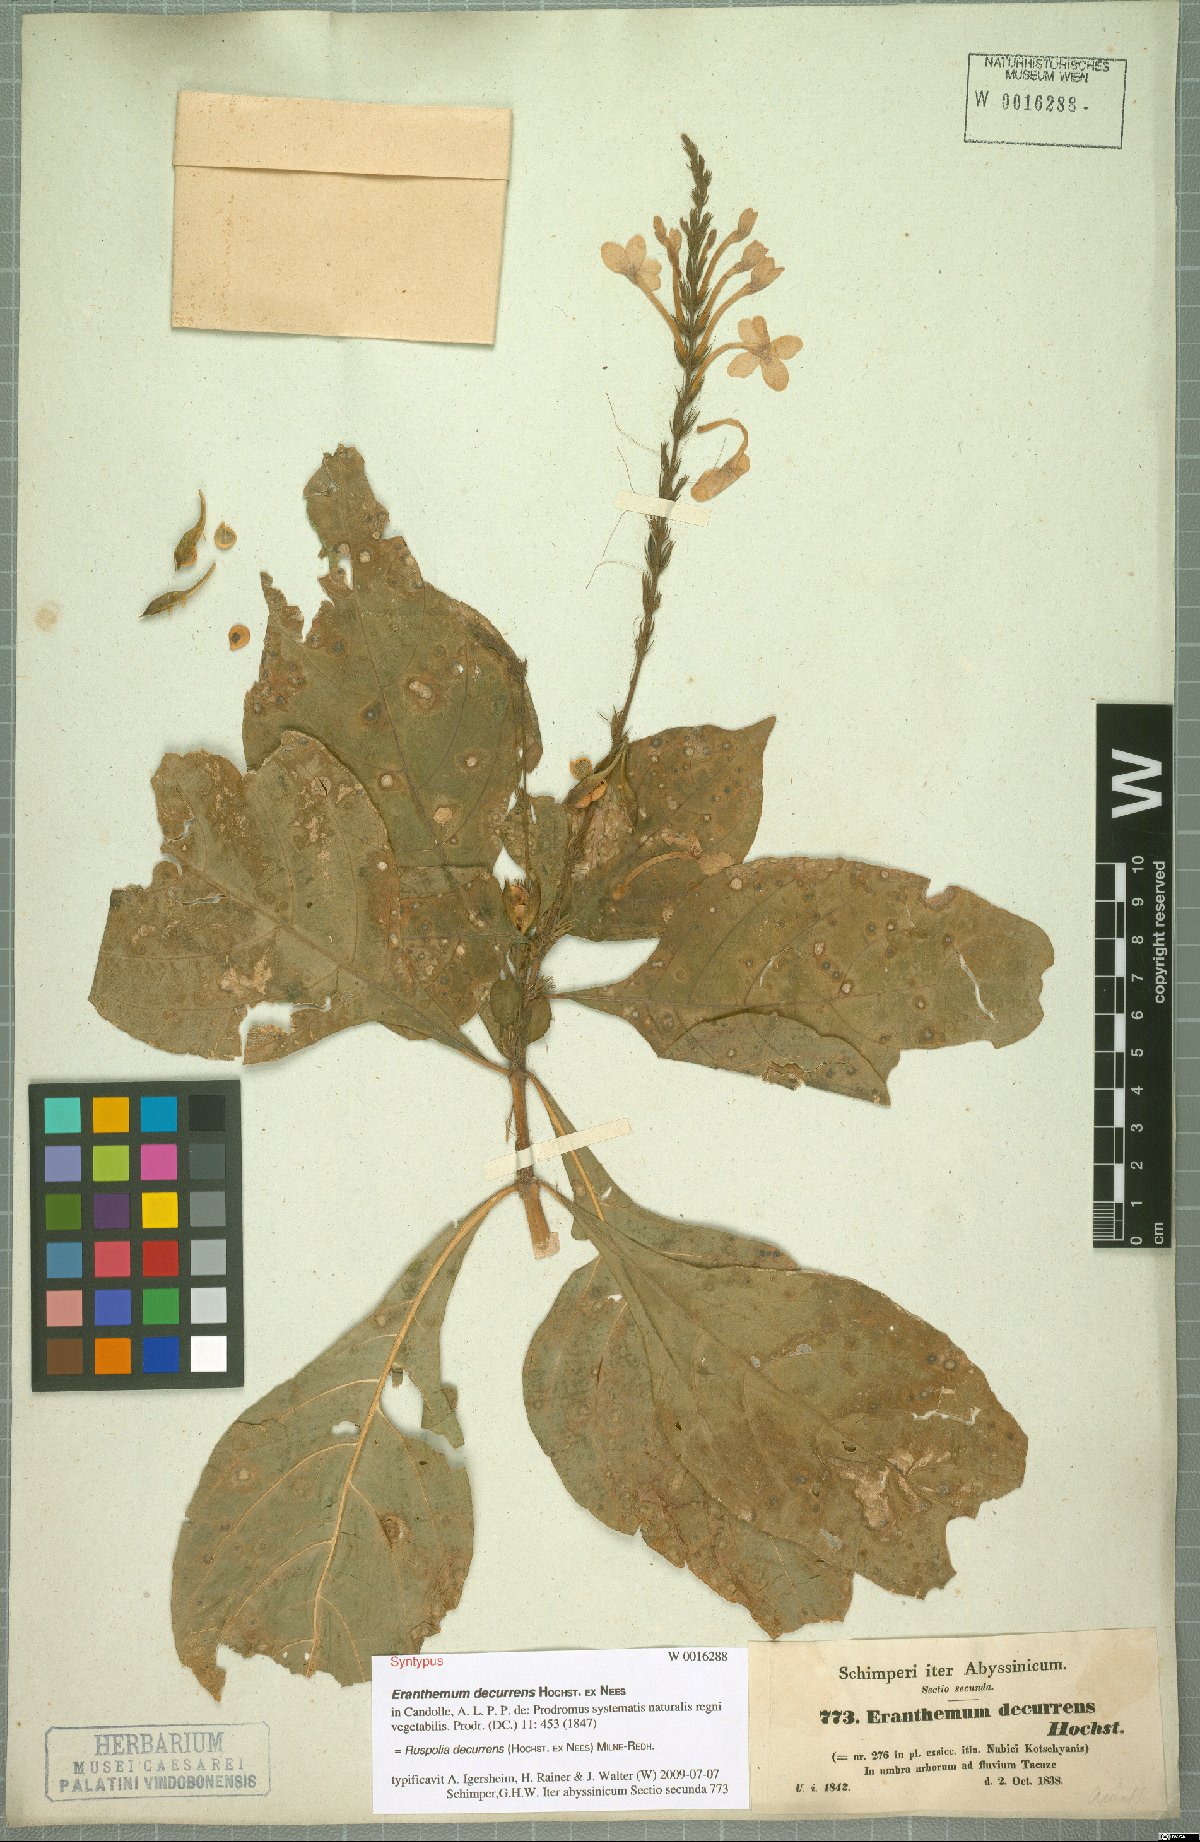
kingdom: Plantae
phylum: Tracheophyta
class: Magnoliopsida
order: Lamiales
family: Acanthaceae
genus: Ruspolia
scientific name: Ruspolia decurrens
